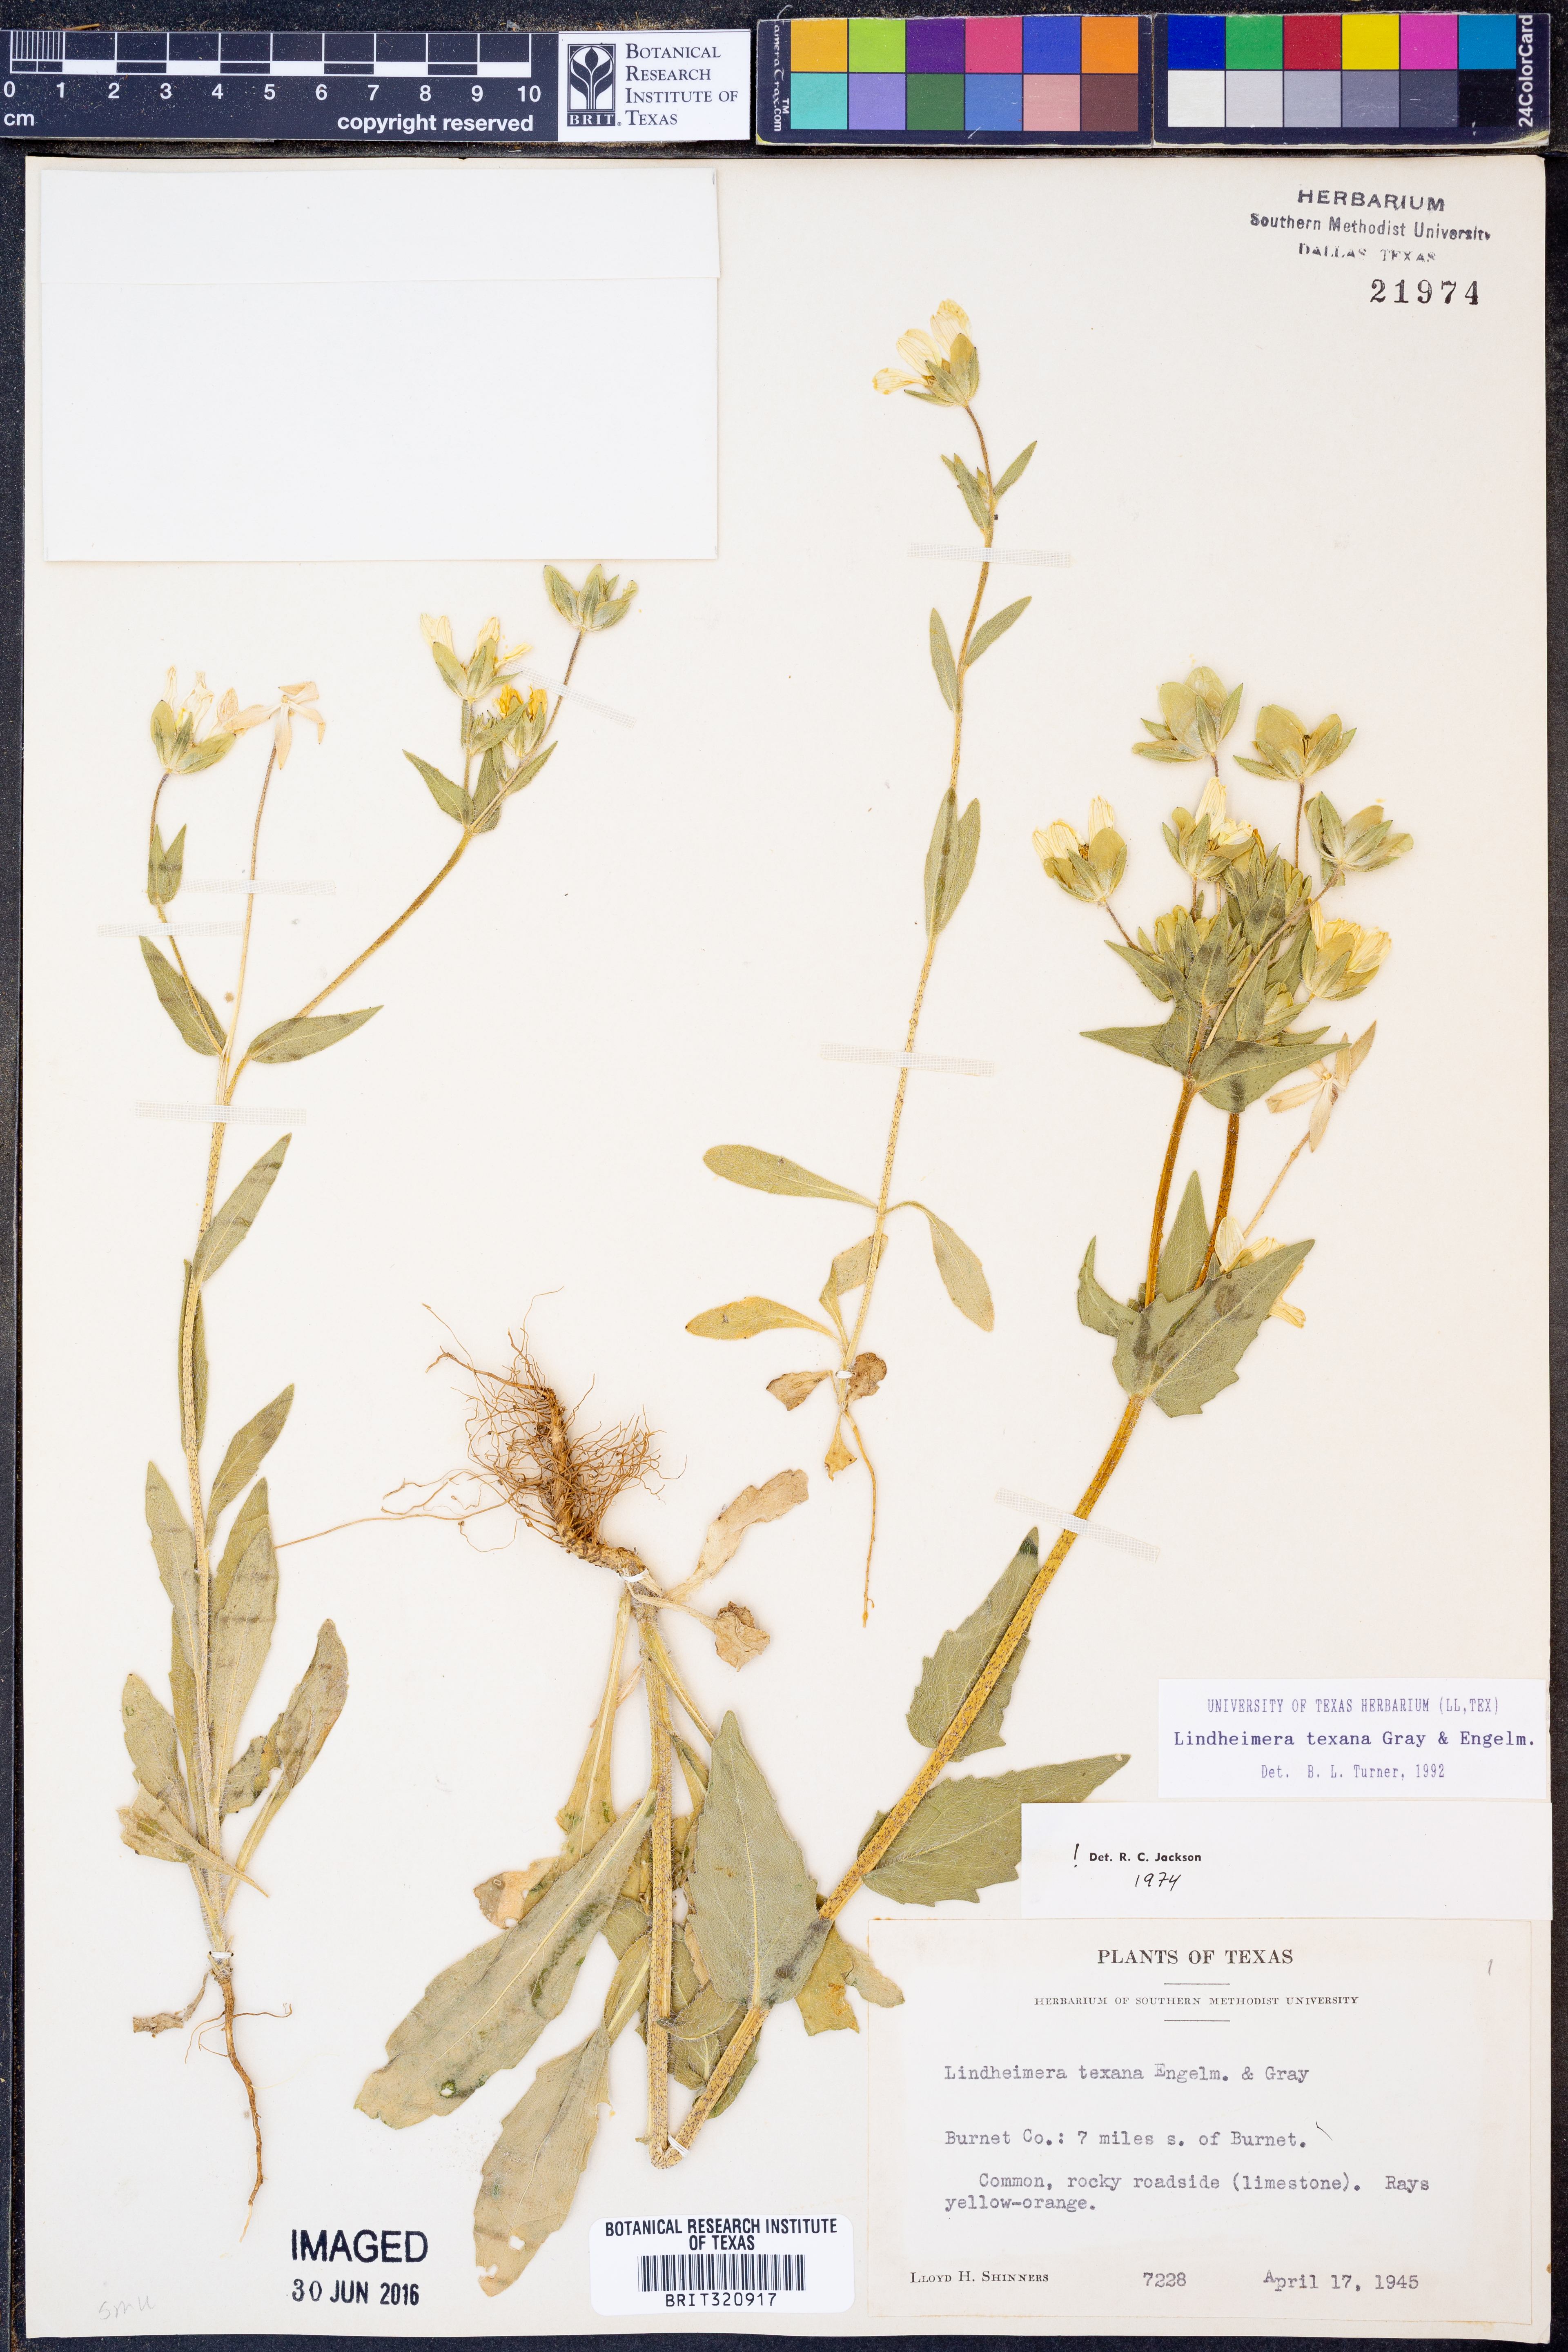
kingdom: Plantae
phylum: Tracheophyta
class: Magnoliopsida
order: Asterales
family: Asteraceae
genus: Lindheimera
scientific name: Lindheimera texana
